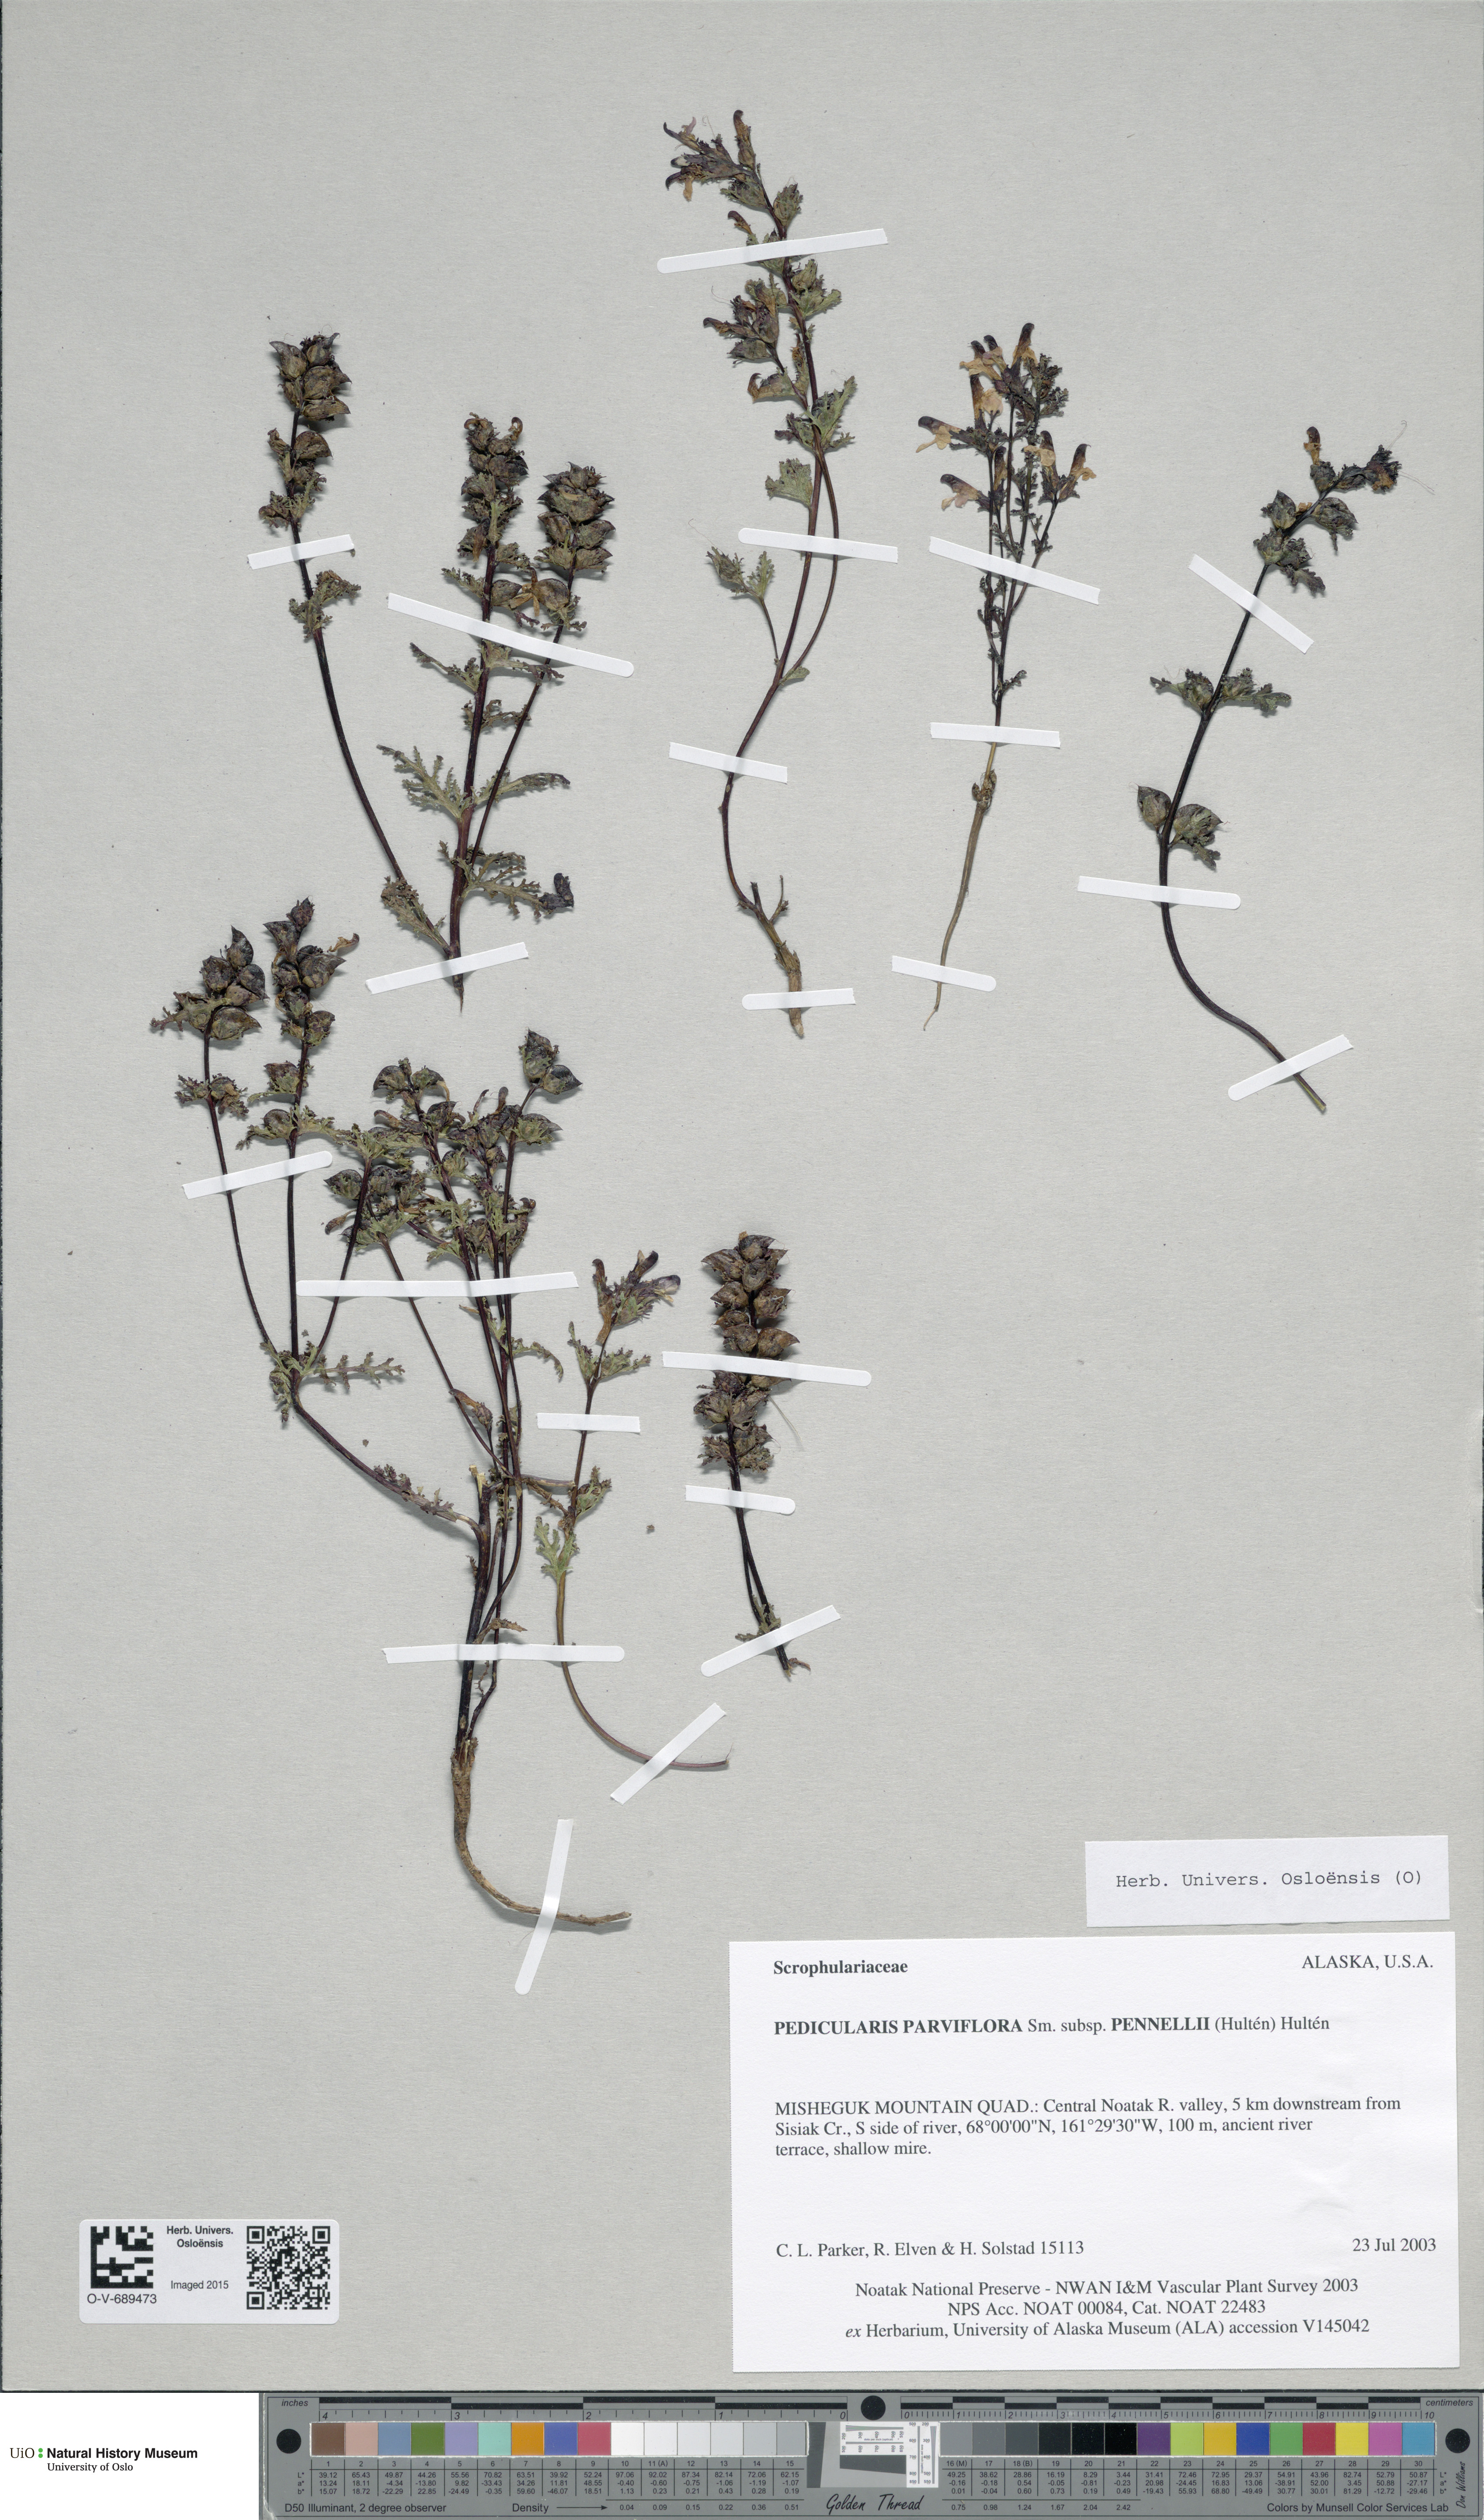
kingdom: Plantae
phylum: Tracheophyta
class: Magnoliopsida
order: Lamiales
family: Orobanchaceae
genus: Pedicularis
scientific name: Pedicularis pennellii
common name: Pennell's lousewort
